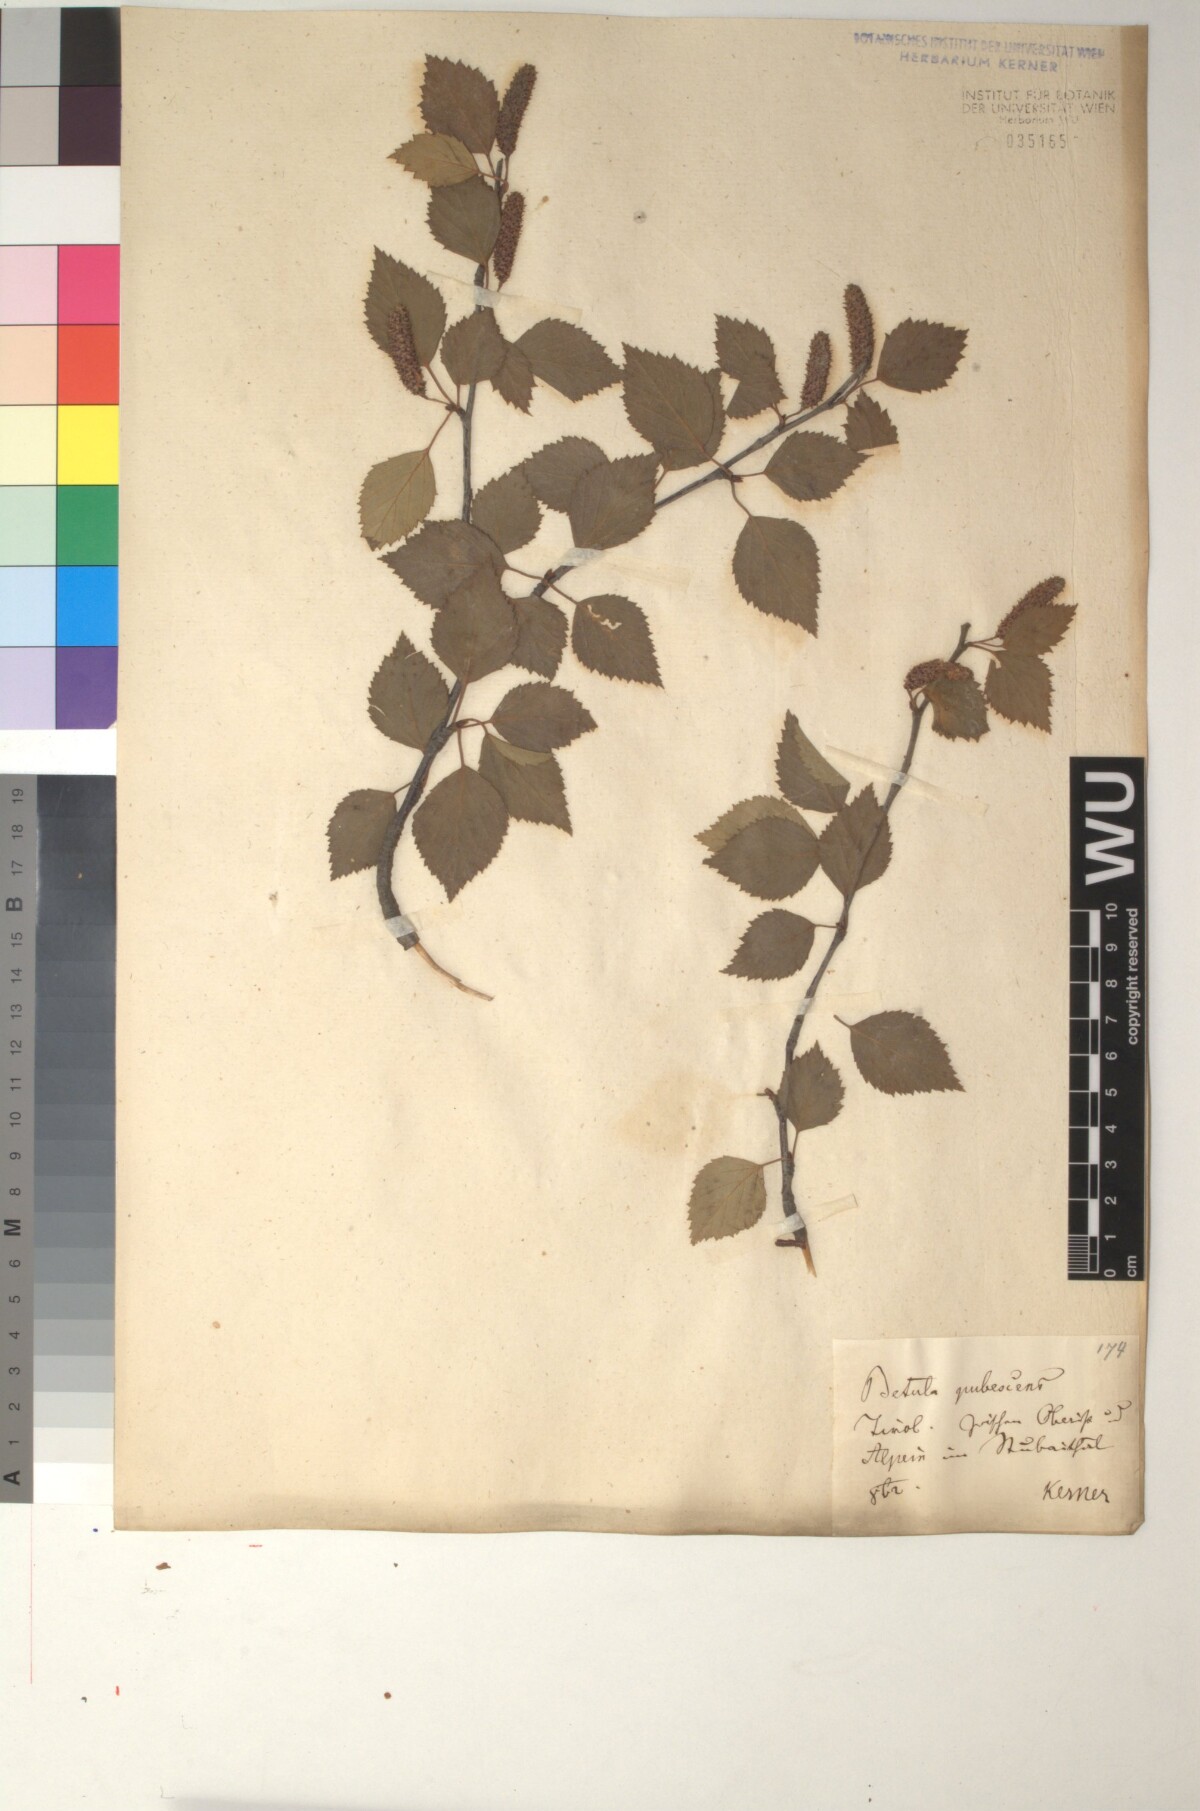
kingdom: Plantae
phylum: Tracheophyta
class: Magnoliopsida
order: Fagales
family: Betulaceae
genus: Betula
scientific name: Betula pubescens
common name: Downy birch
